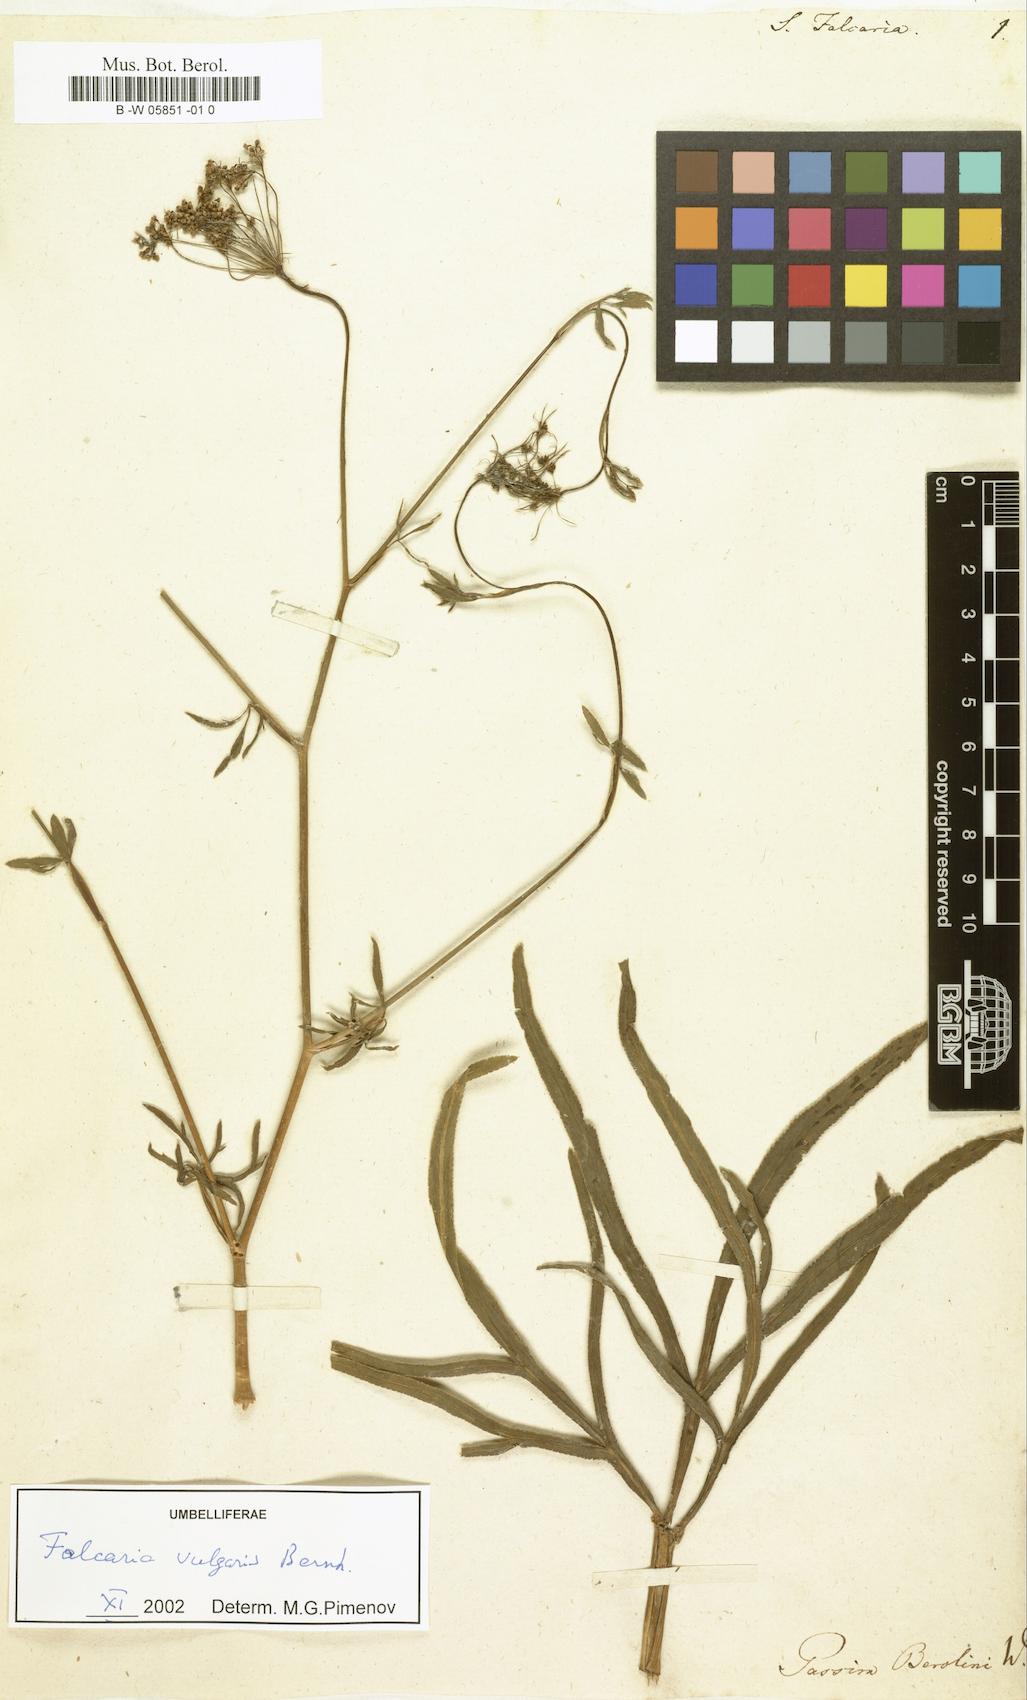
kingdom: Plantae
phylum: Tracheophyta
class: Magnoliopsida
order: Apiales
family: Apiaceae
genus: Falcaria
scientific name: Falcaria vulgaris
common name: Longleaf
